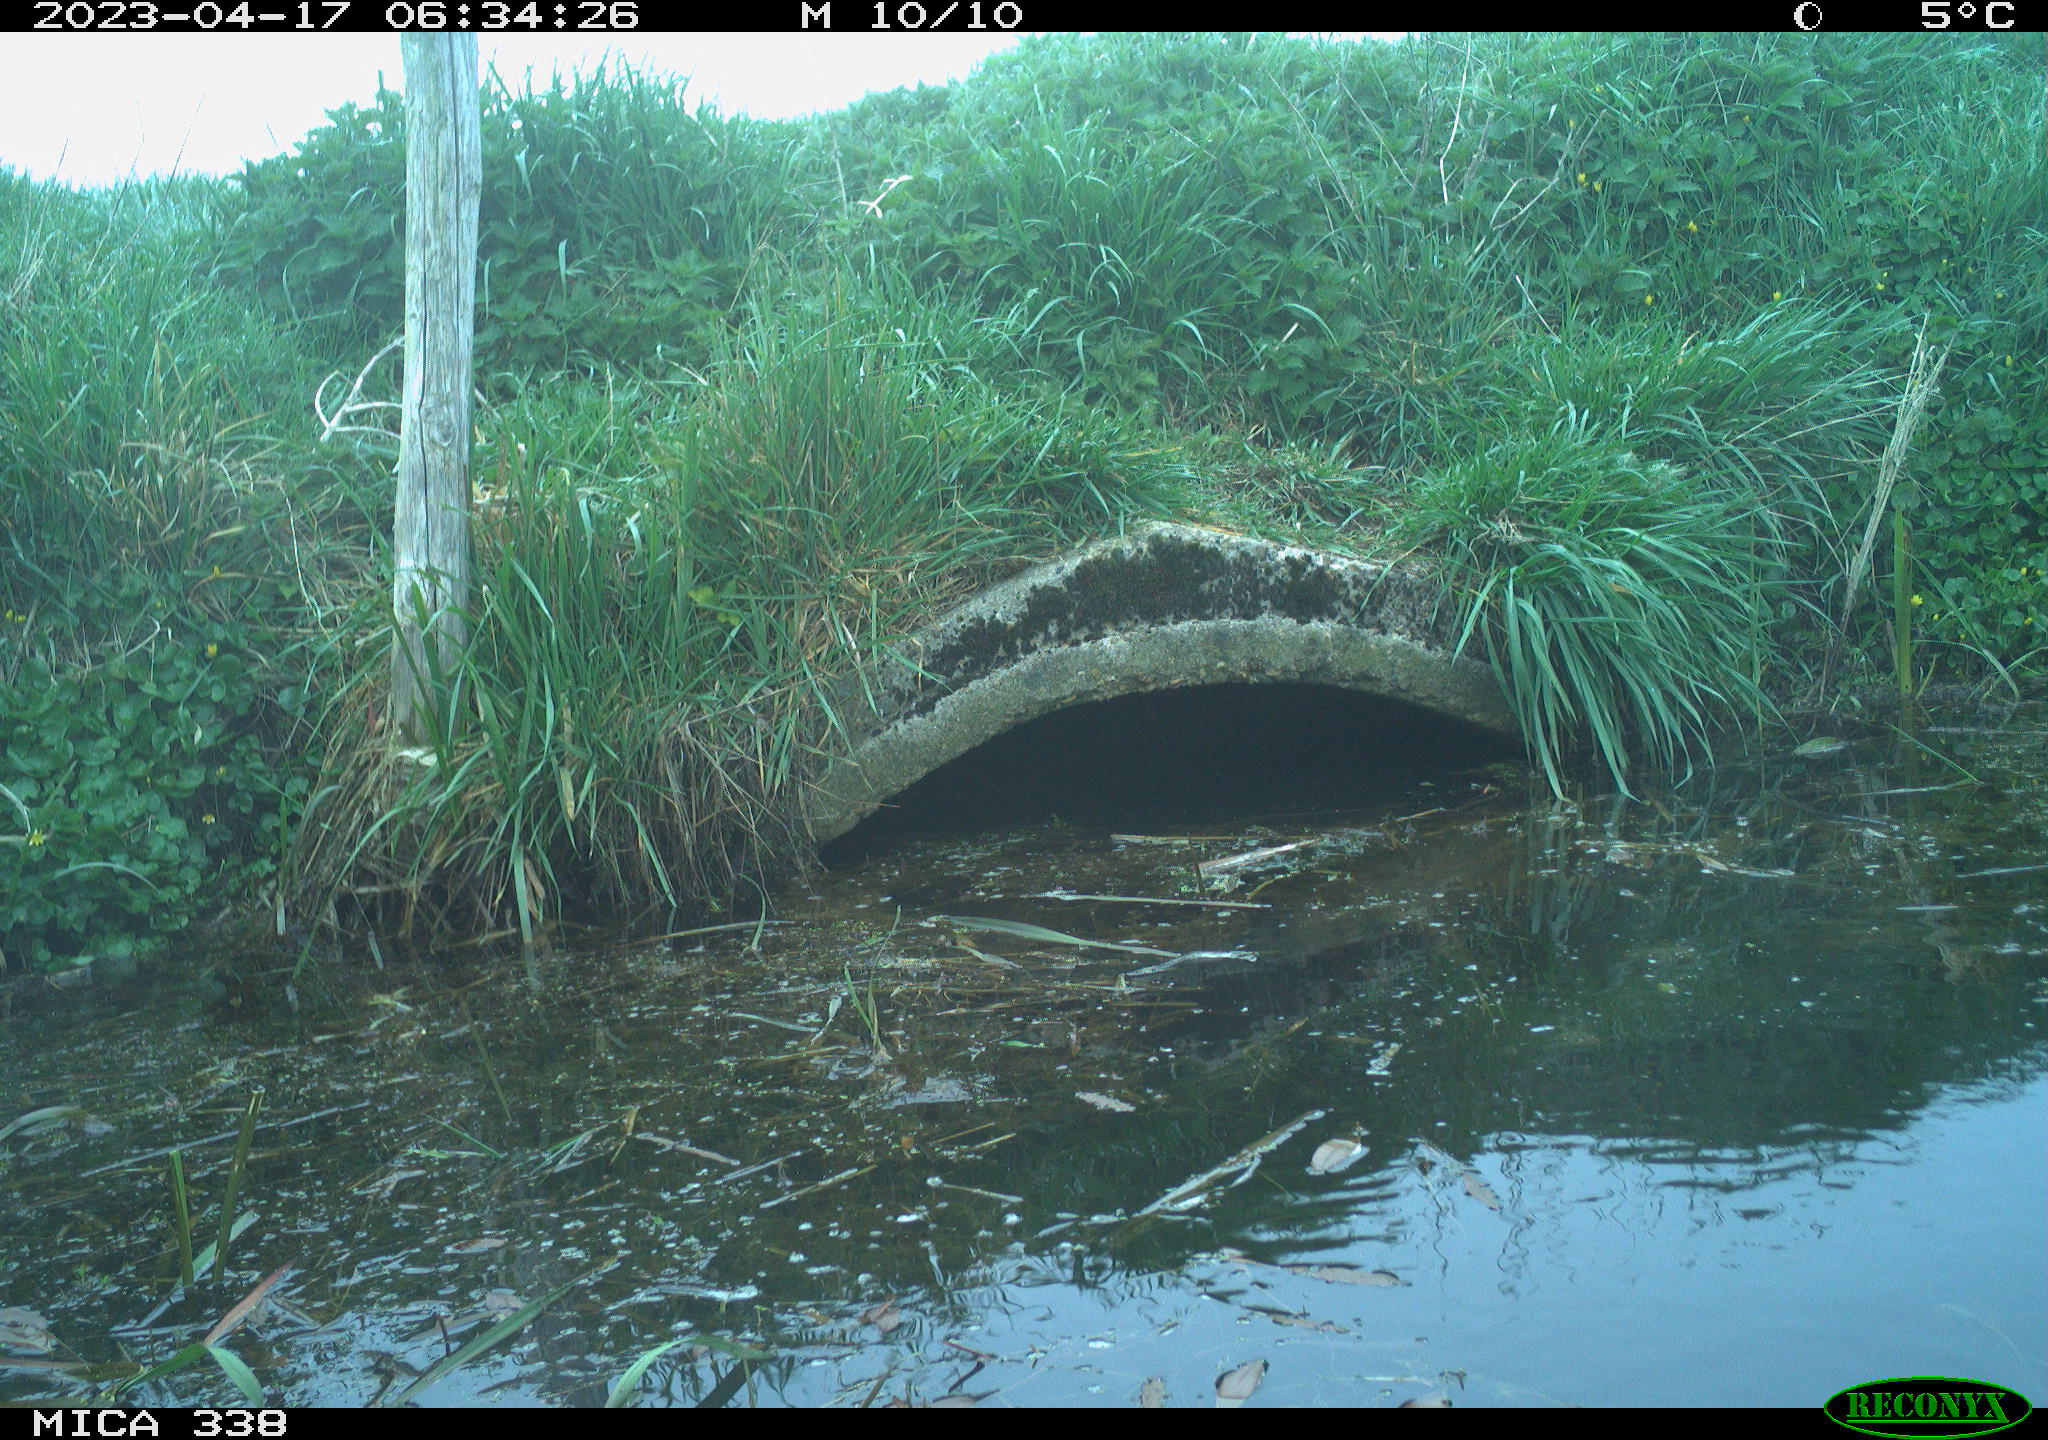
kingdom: Animalia
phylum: Chordata
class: Aves
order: Anseriformes
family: Anatidae
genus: Anas
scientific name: Anas platyrhynchos
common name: Mallard
